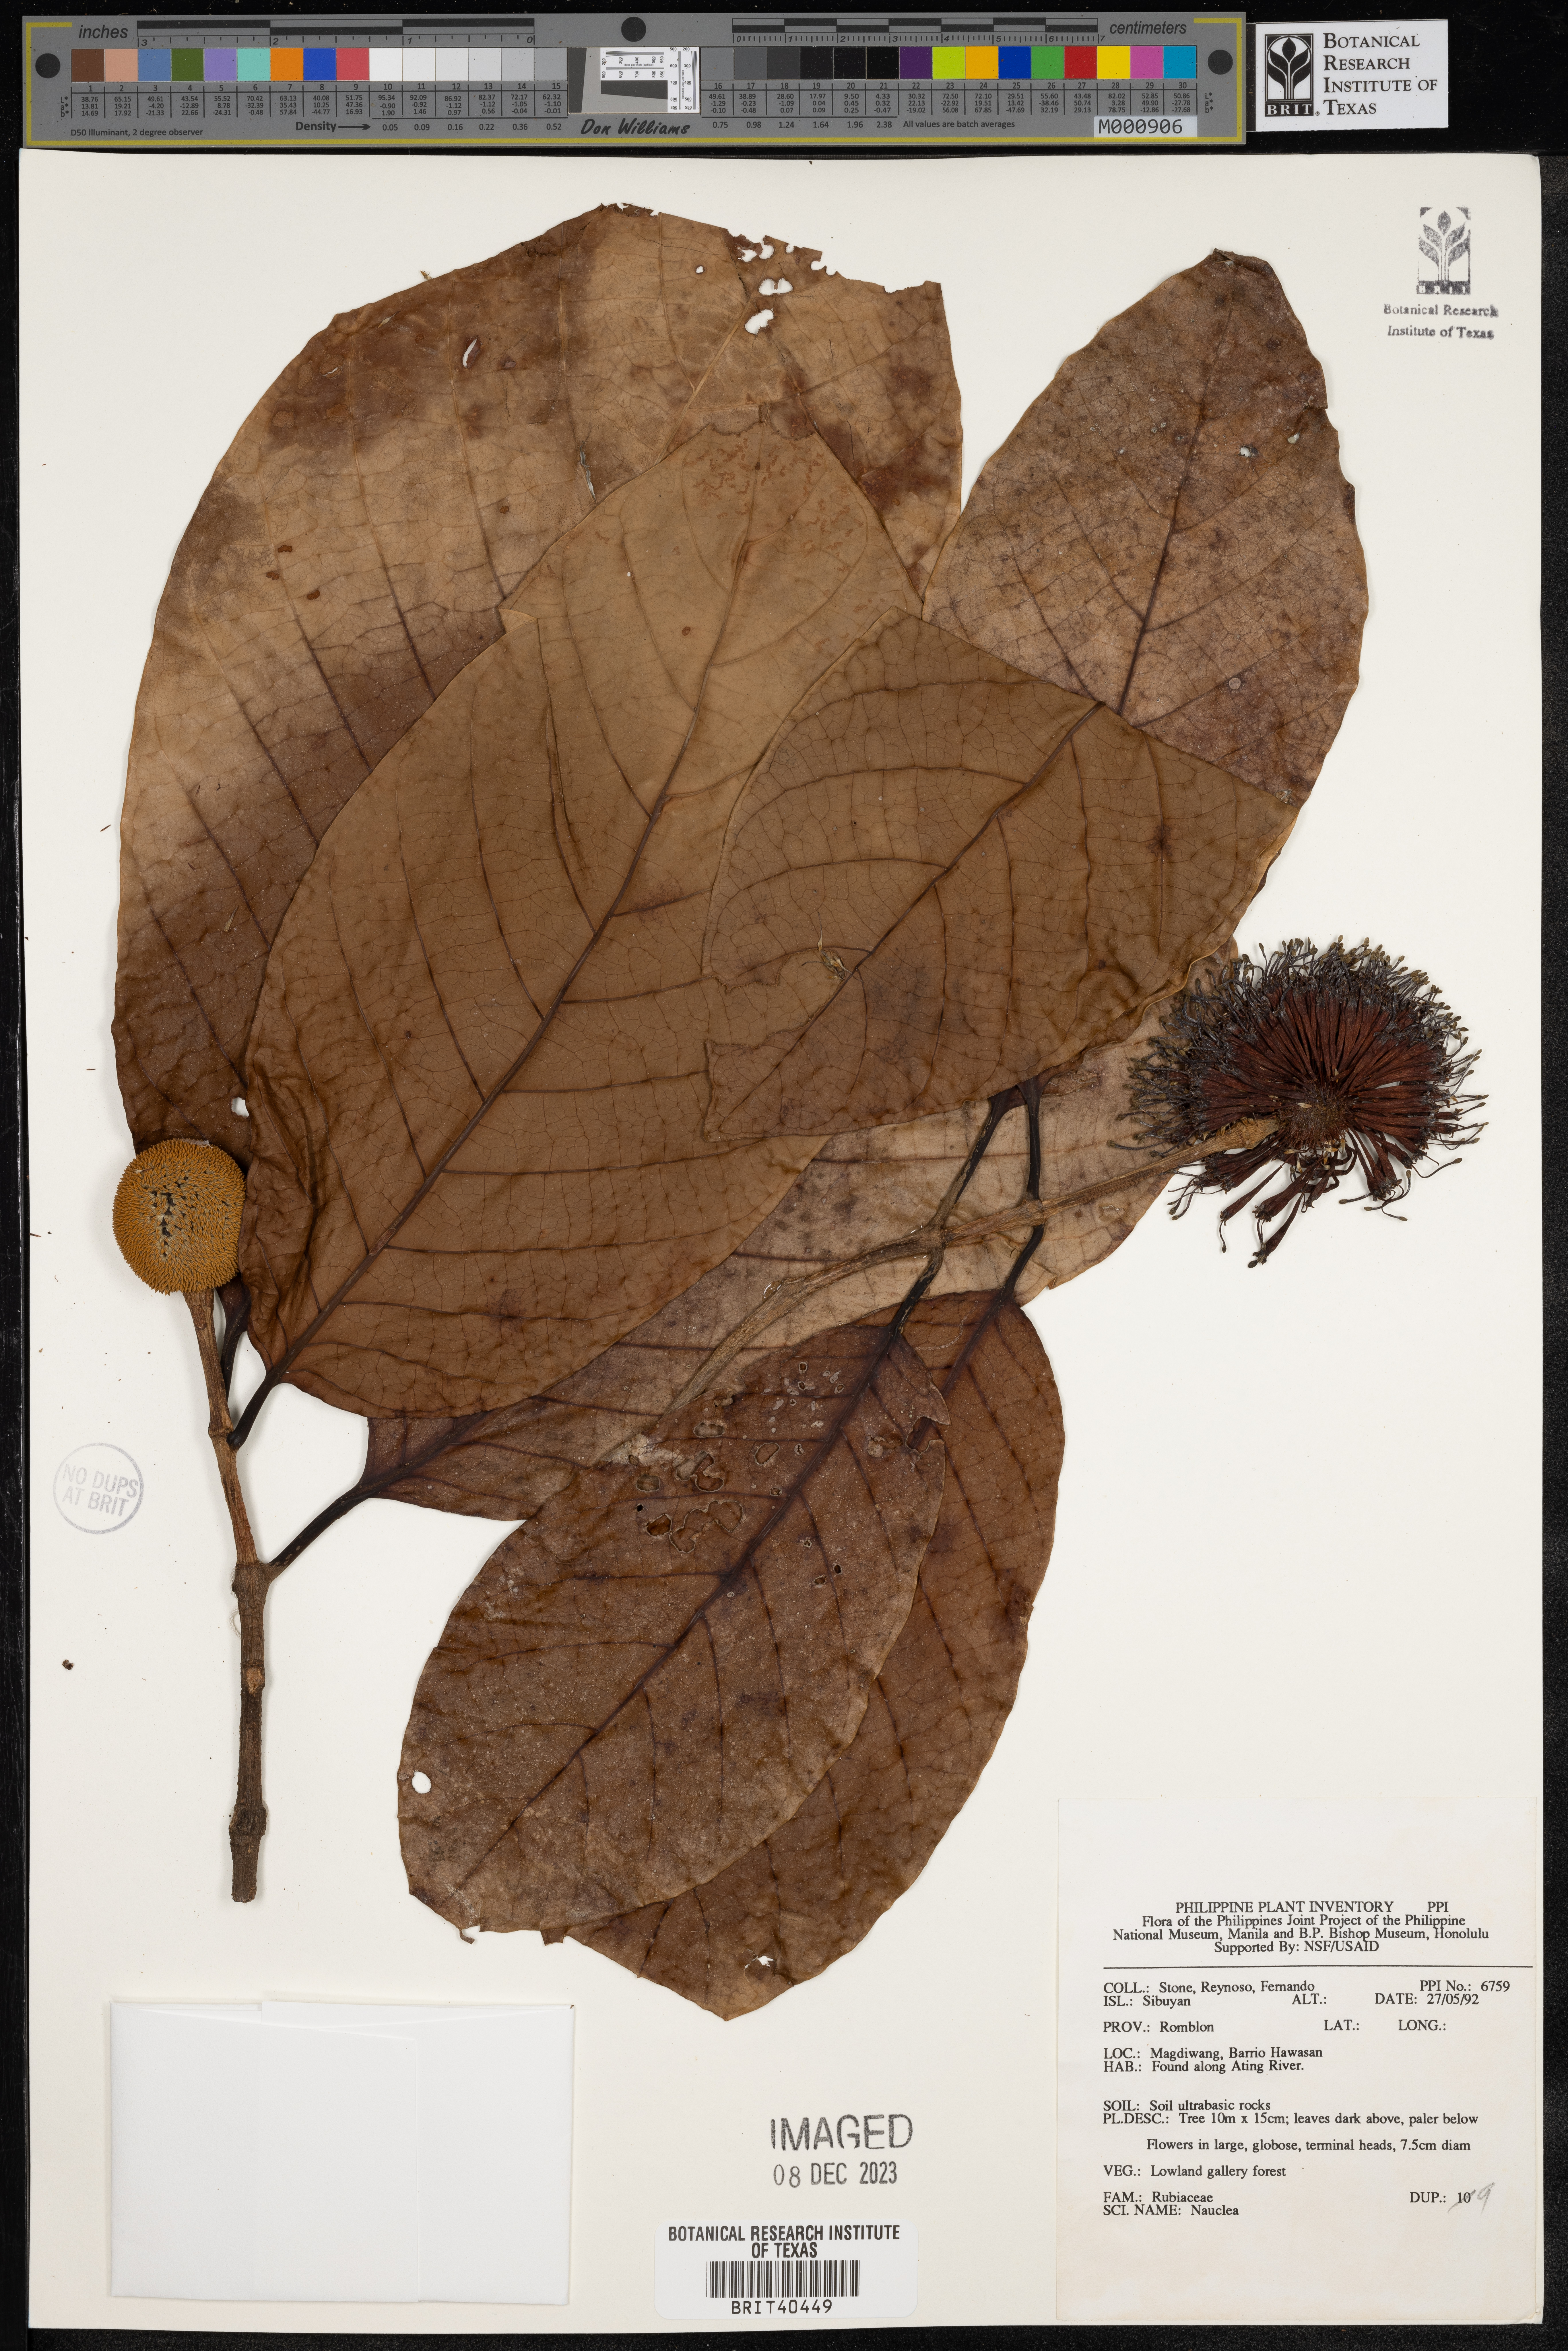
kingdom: Plantae
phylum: Tracheophyta
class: Magnoliopsida
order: Gentianales
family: Rubiaceae
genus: Nauclea
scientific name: Nauclea
